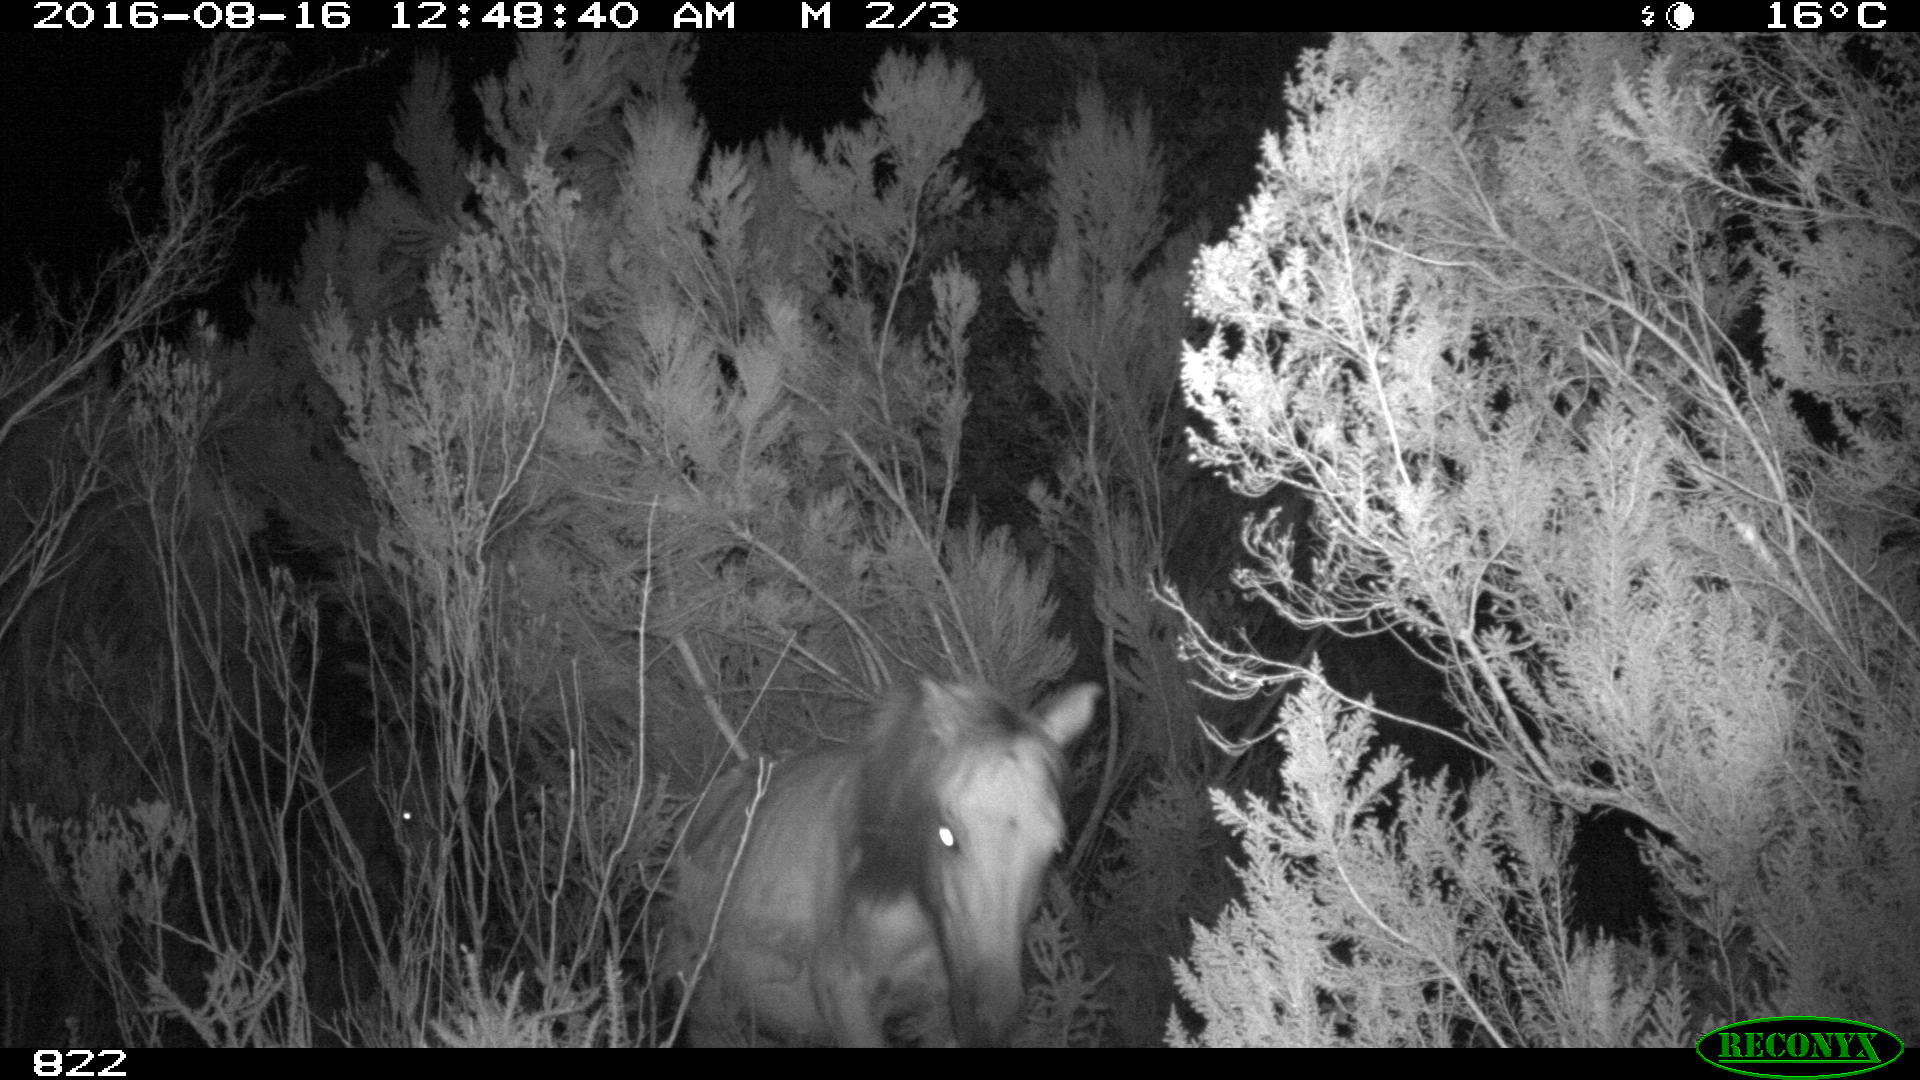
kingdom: Animalia
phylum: Chordata
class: Mammalia
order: Perissodactyla
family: Equidae
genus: Equus
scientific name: Equus caballus
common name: Horse
